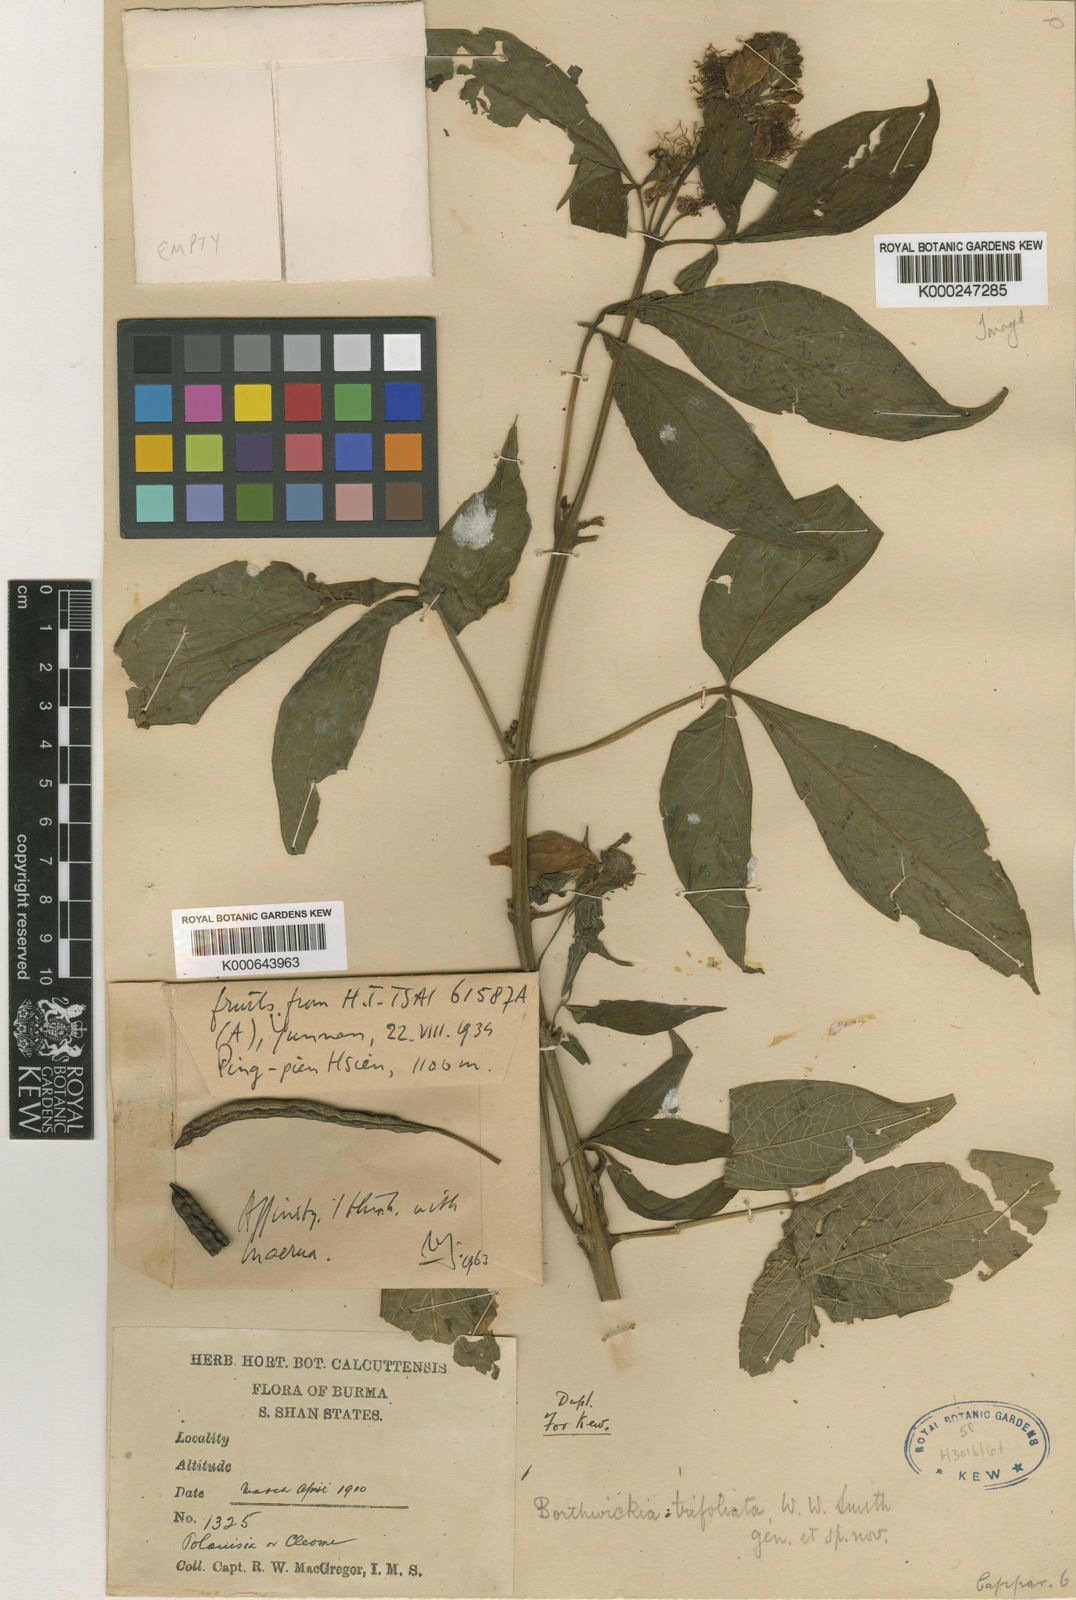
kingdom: Plantae
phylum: Tracheophyta
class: Magnoliopsida
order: Brassicales
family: Borthwickiaceae
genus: Borthwickia
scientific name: Borthwickia trifoliata
